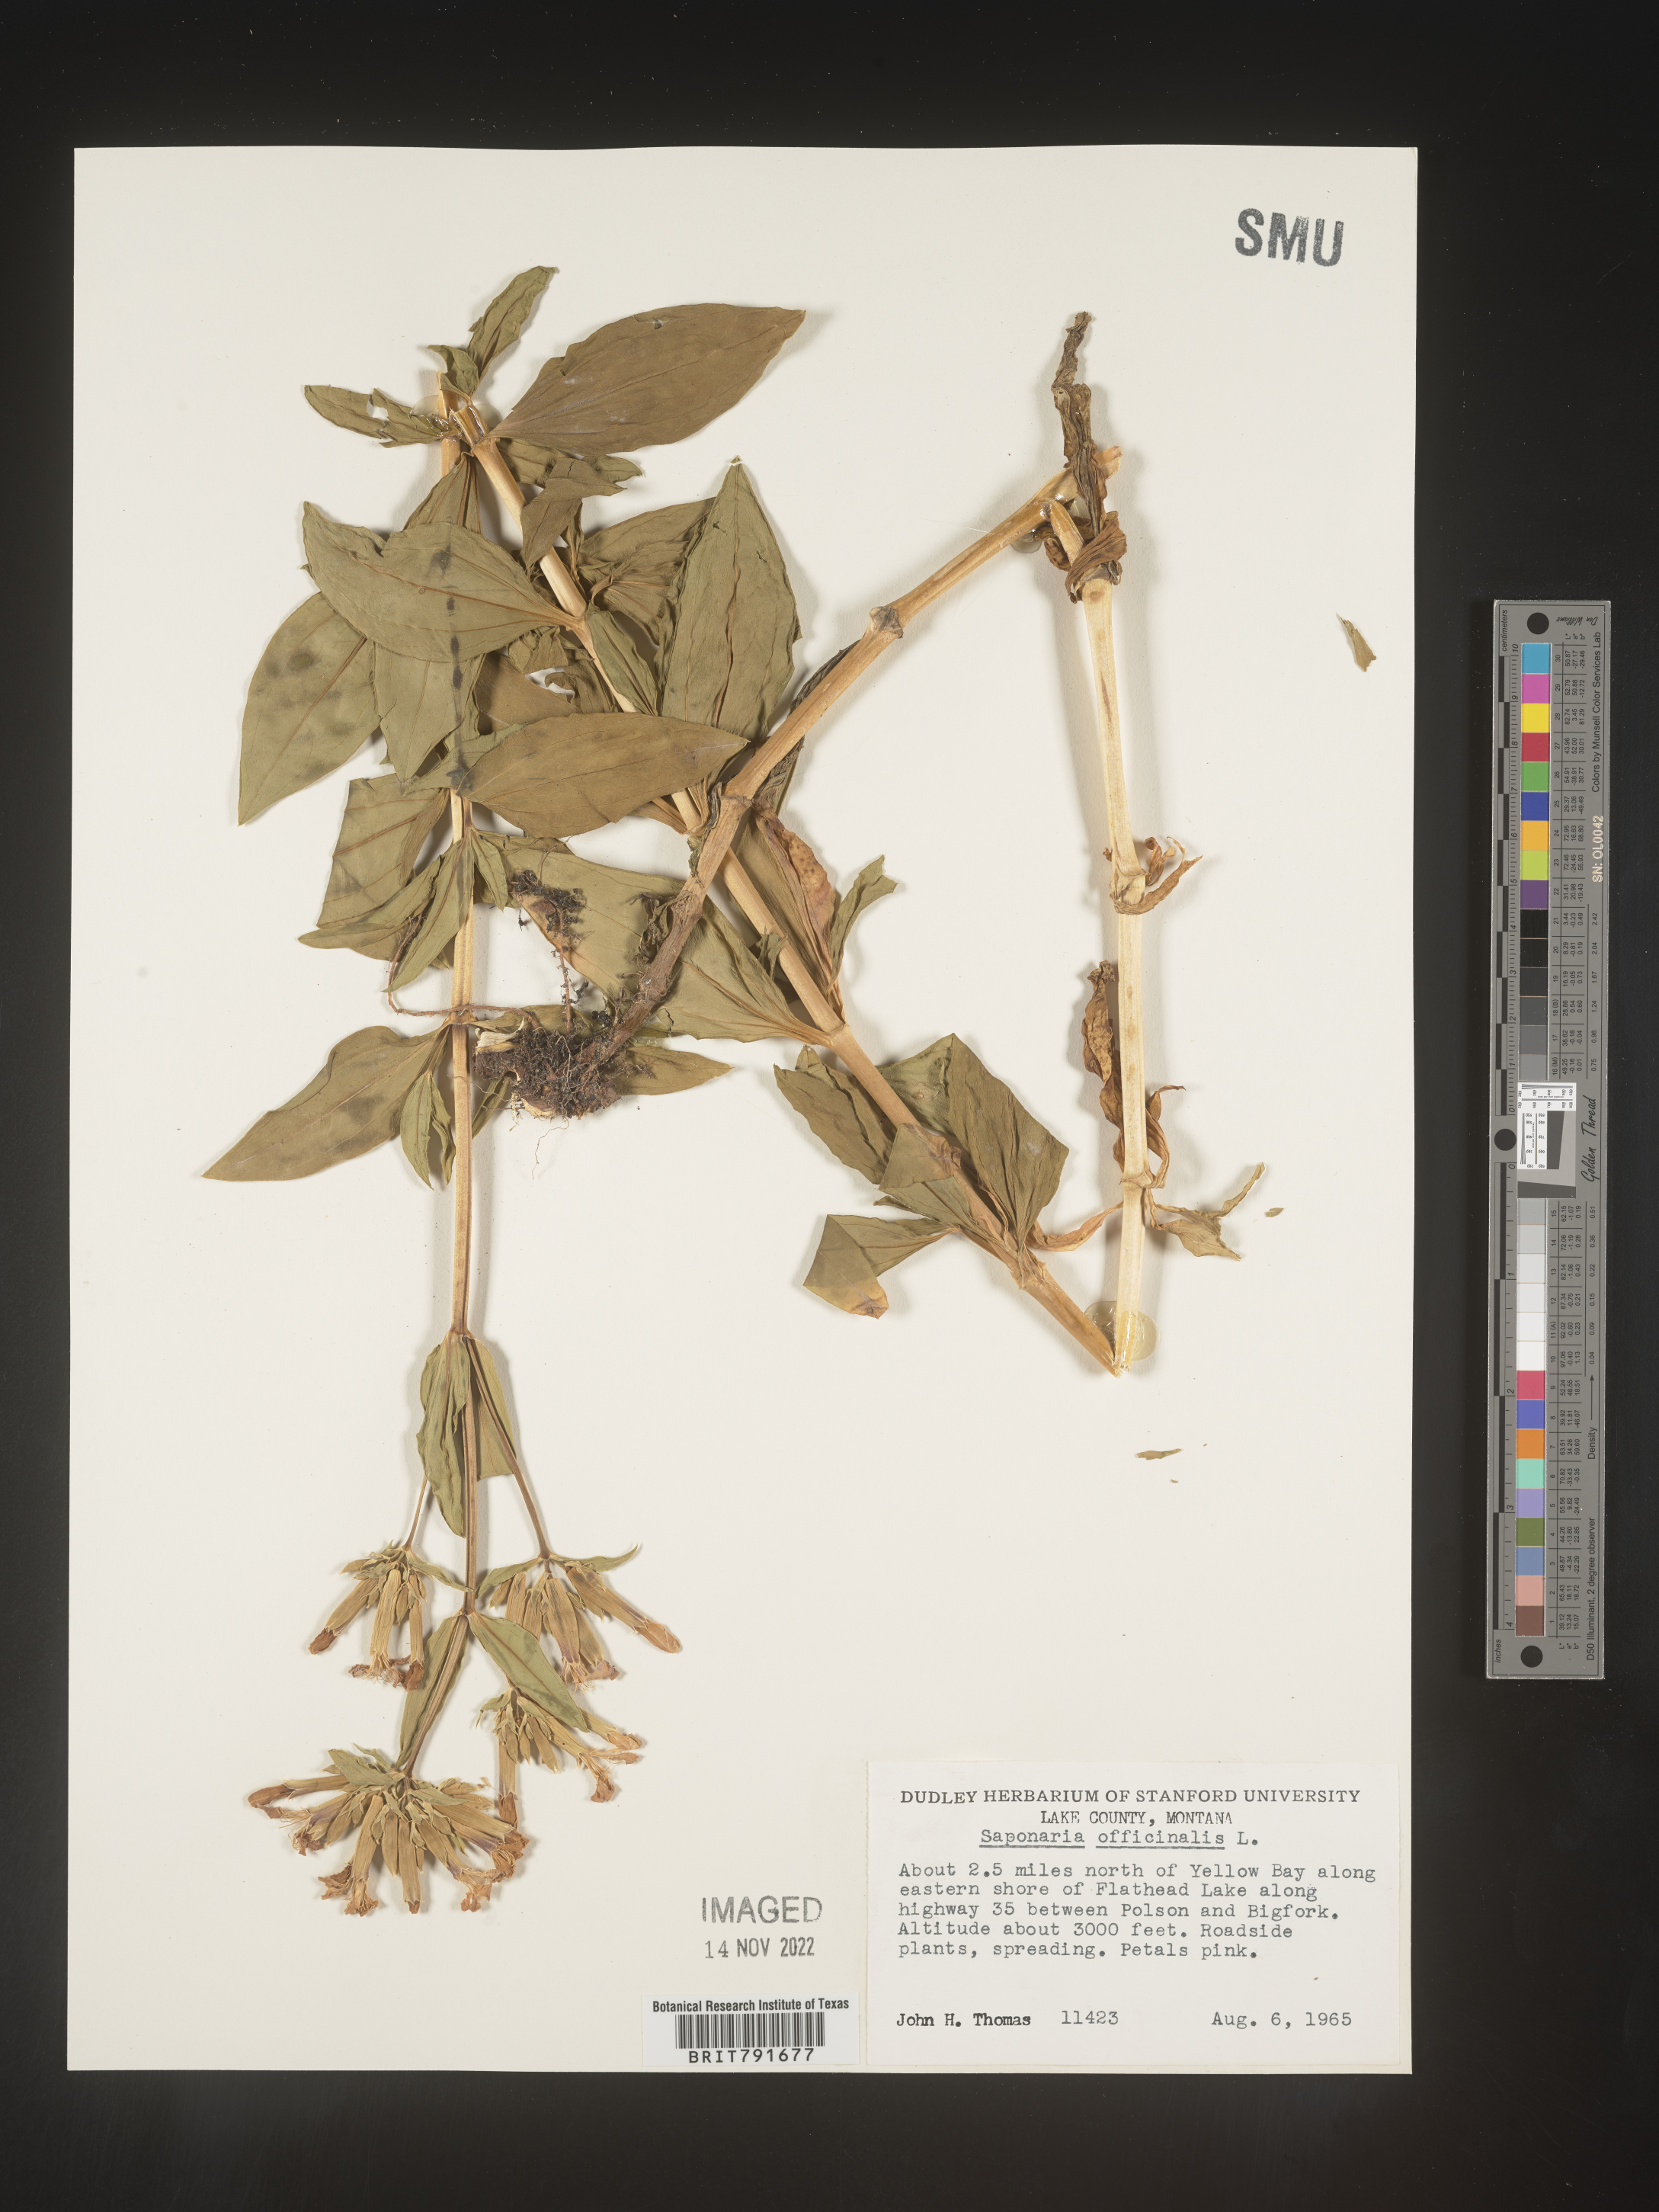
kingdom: Plantae
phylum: Tracheophyta
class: Magnoliopsida
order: Caryophyllales
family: Caryophyllaceae
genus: Saponaria
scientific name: Saponaria officinalis
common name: Soapwort
